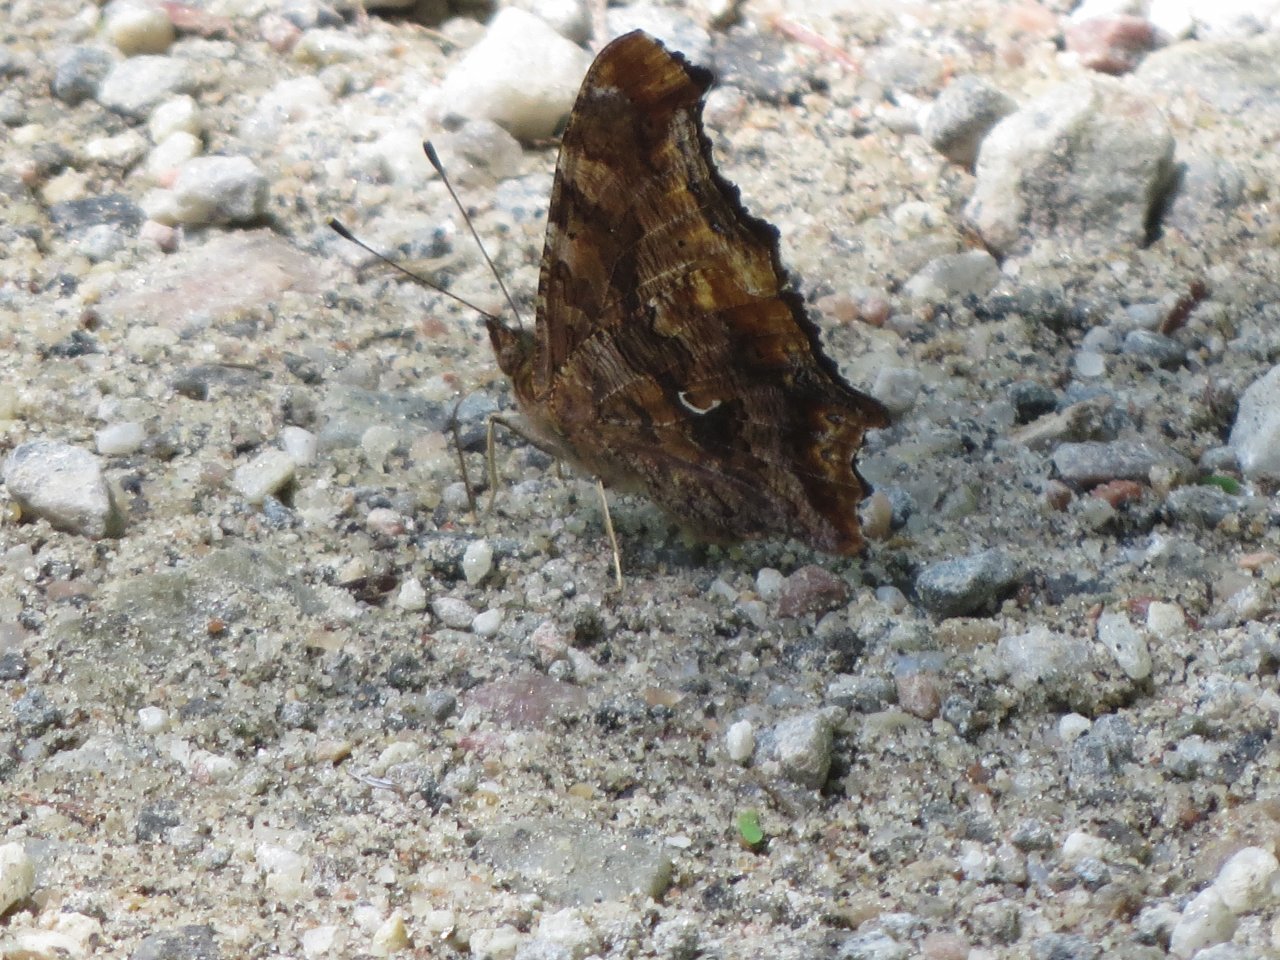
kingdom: Animalia
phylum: Arthropoda
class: Insecta
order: Lepidoptera
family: Nymphalidae
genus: Polygonia
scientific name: Polygonia comma
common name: Eastern Comma
